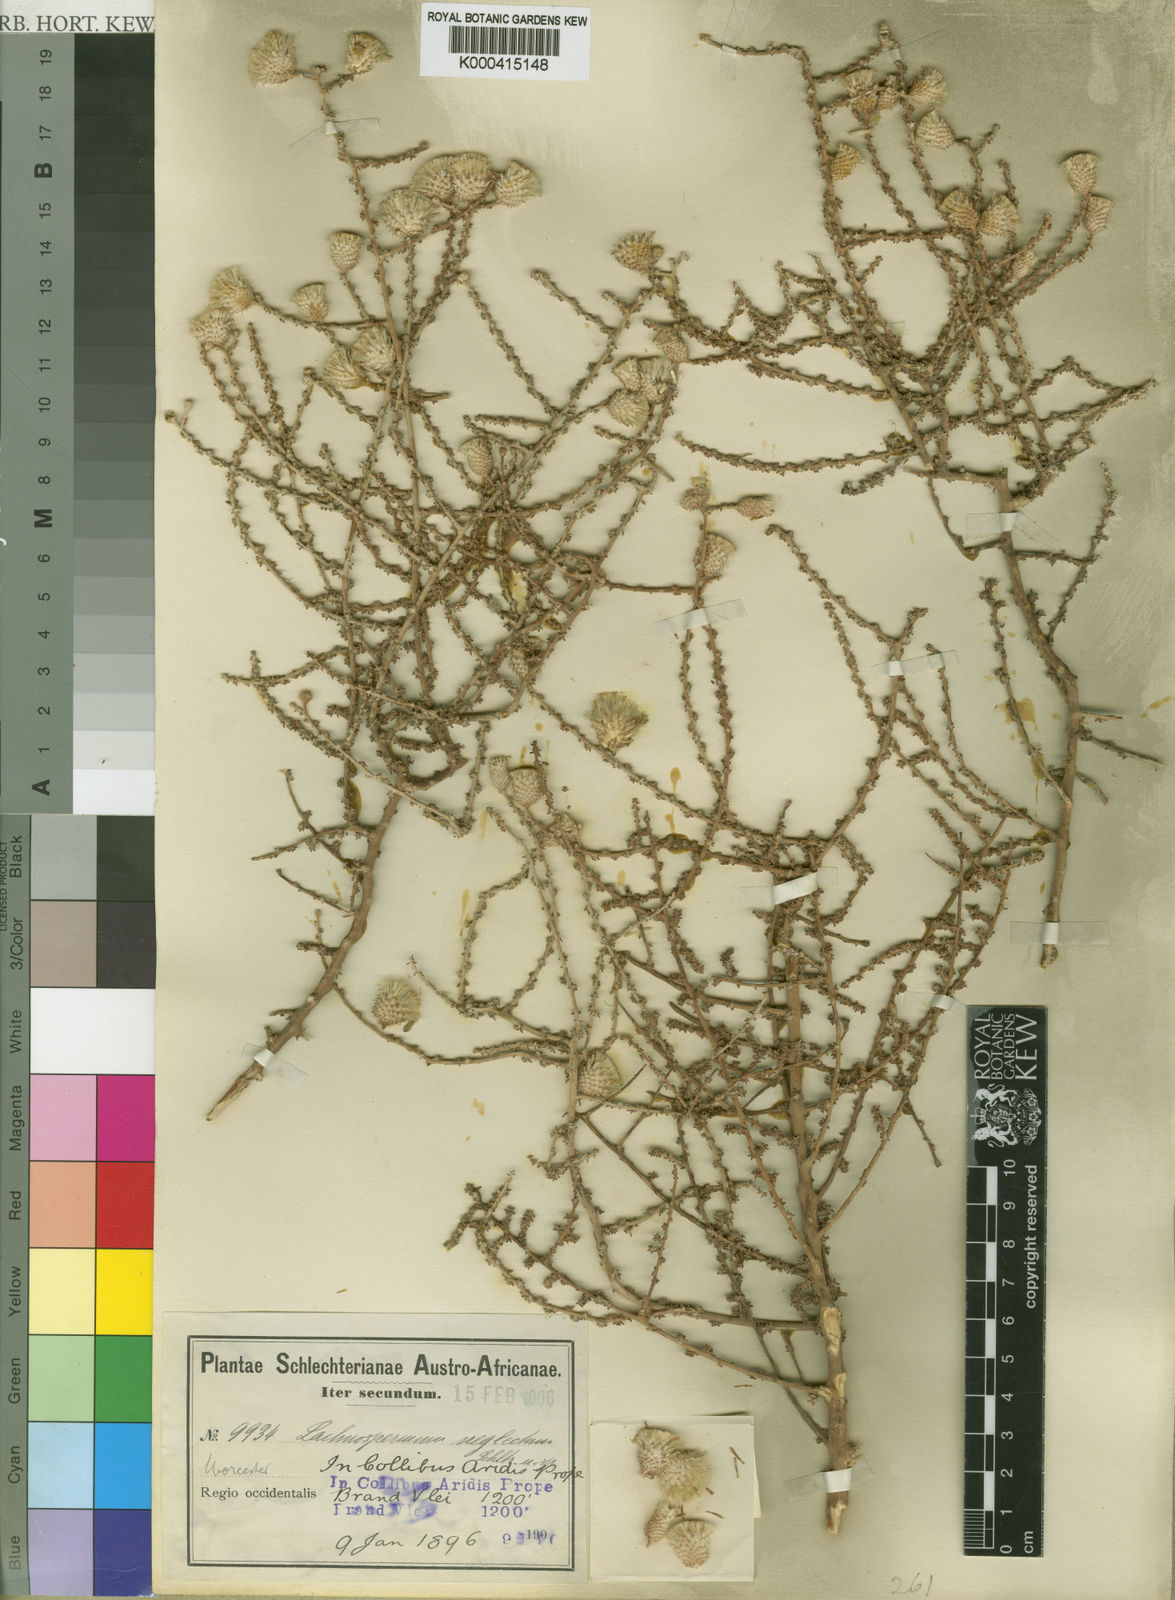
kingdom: Plantae
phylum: Tracheophyta
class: Magnoliopsida
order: Asterales
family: Asteraceae
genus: Lachnospermum
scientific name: Lachnospermum
